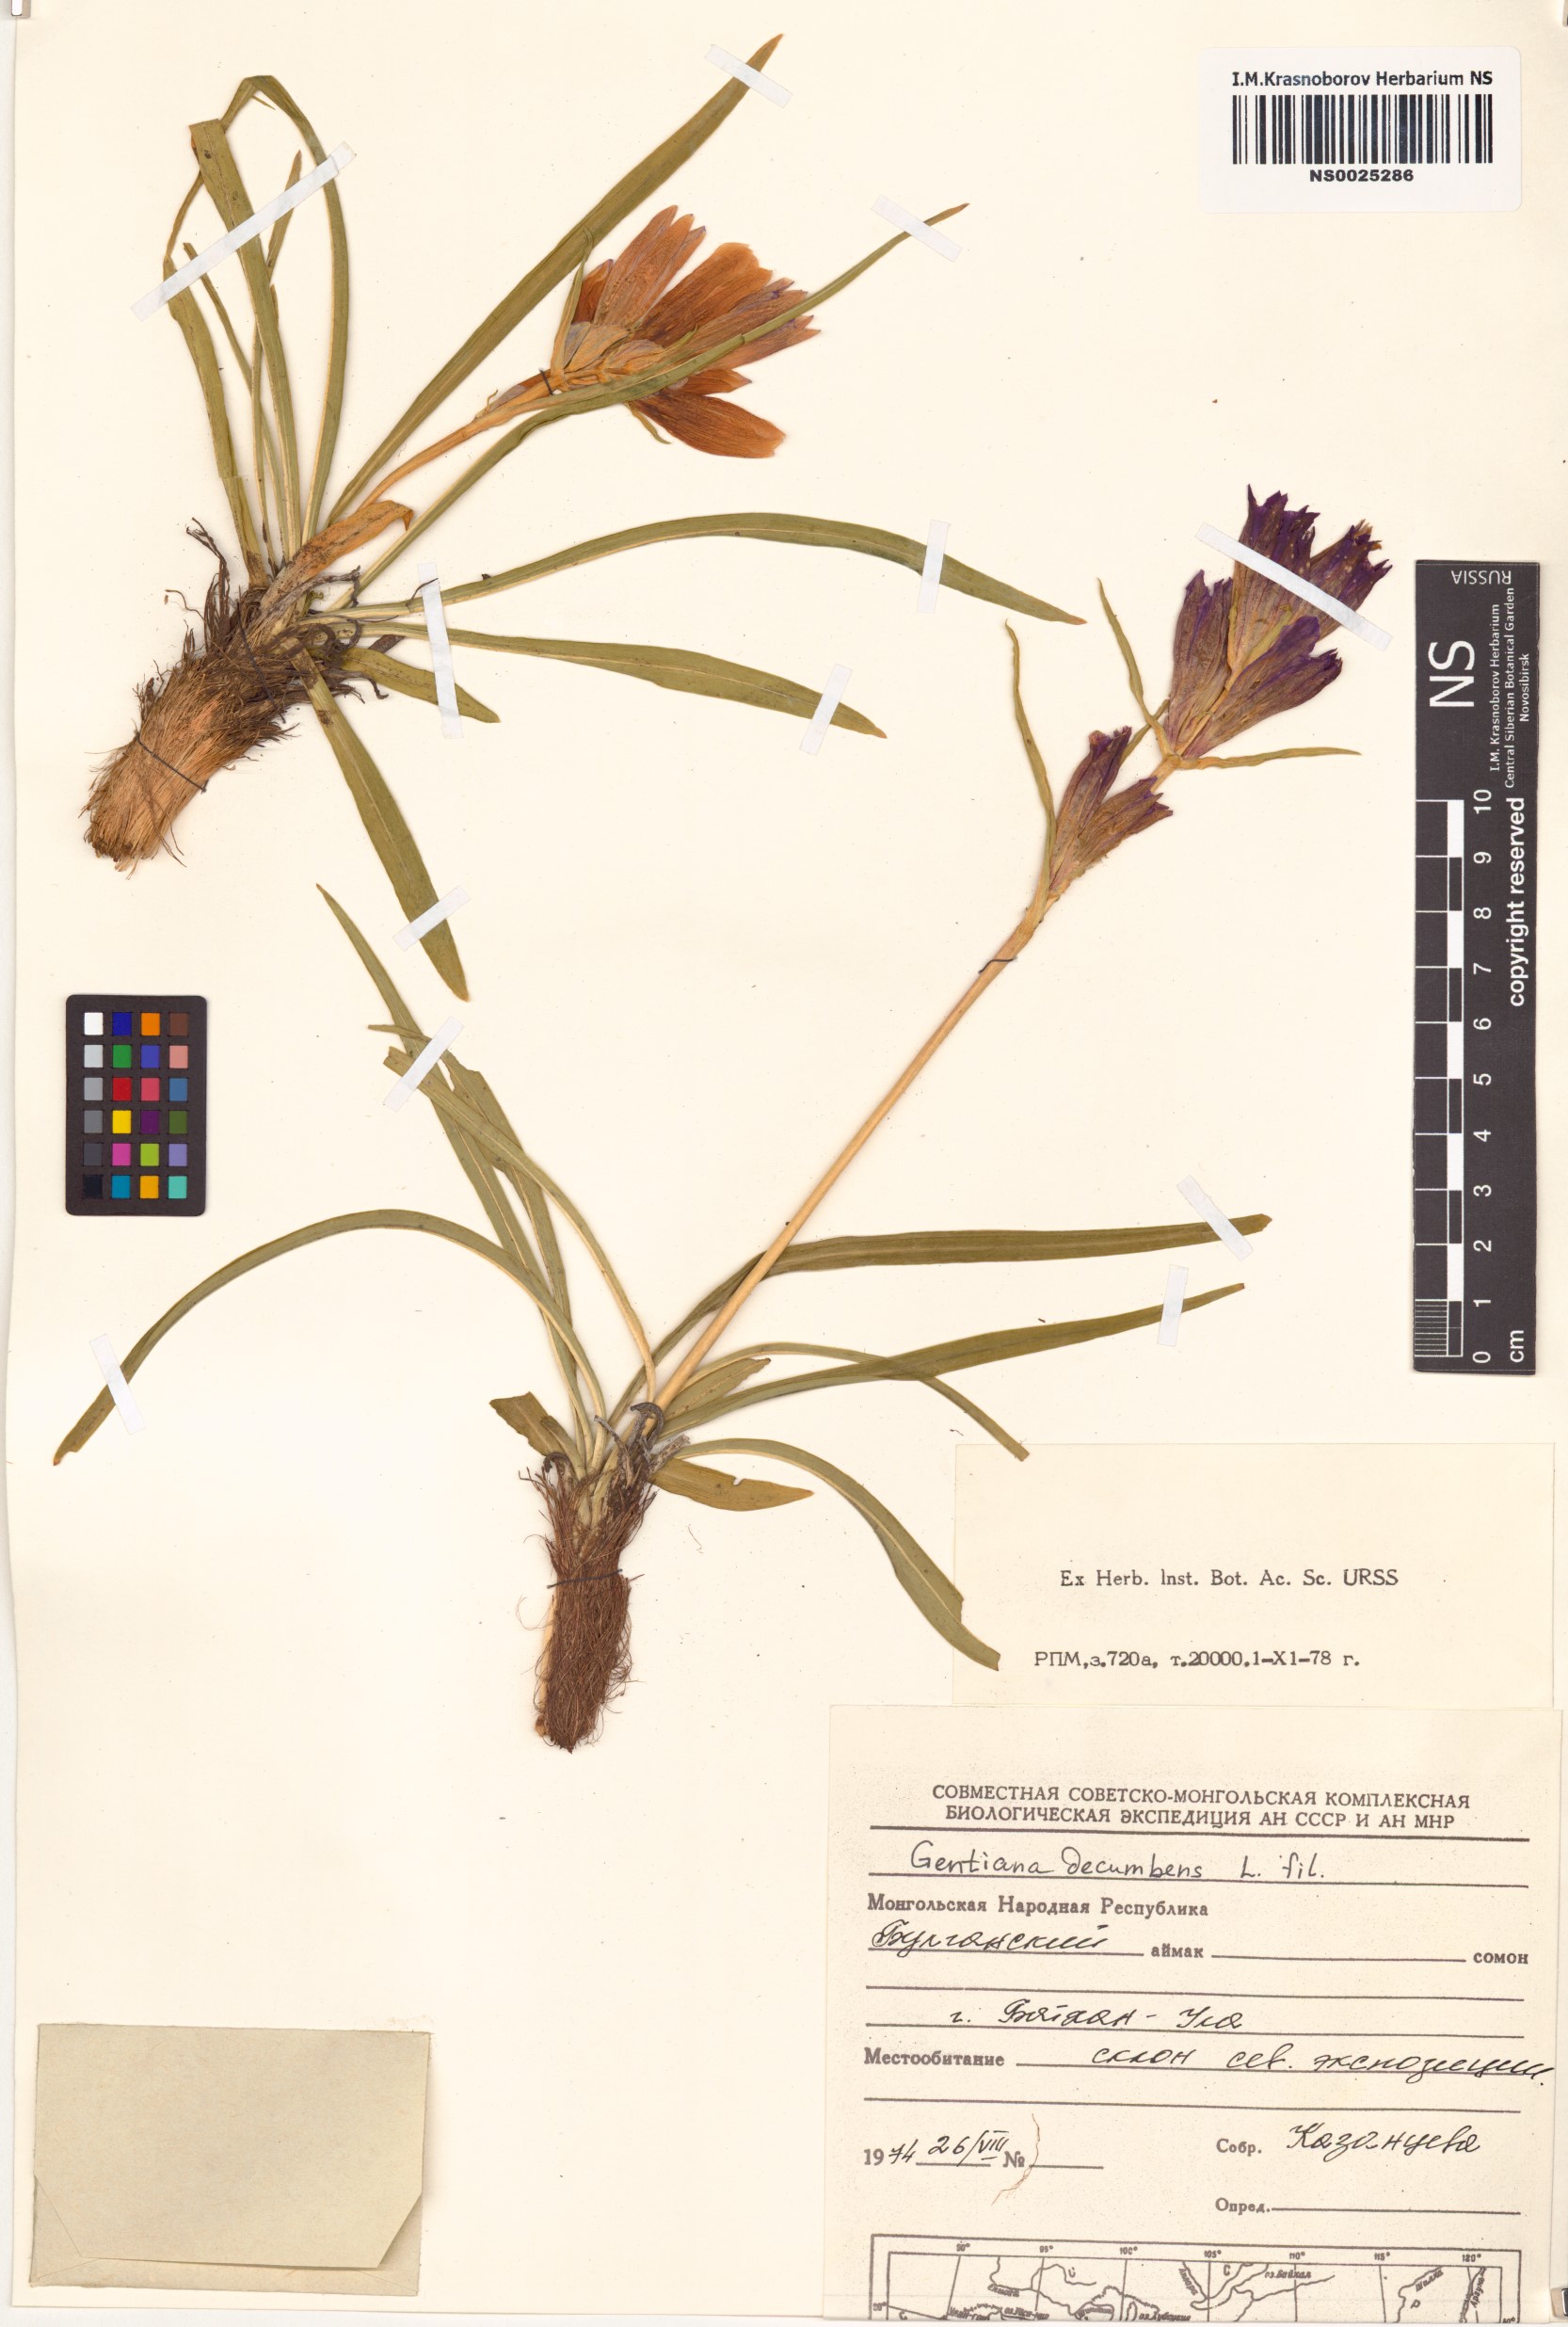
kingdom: Plantae
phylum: Tracheophyta
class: Magnoliopsida
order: Gentianales
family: Gentianaceae
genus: Gentiana
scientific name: Gentiana decumbens
